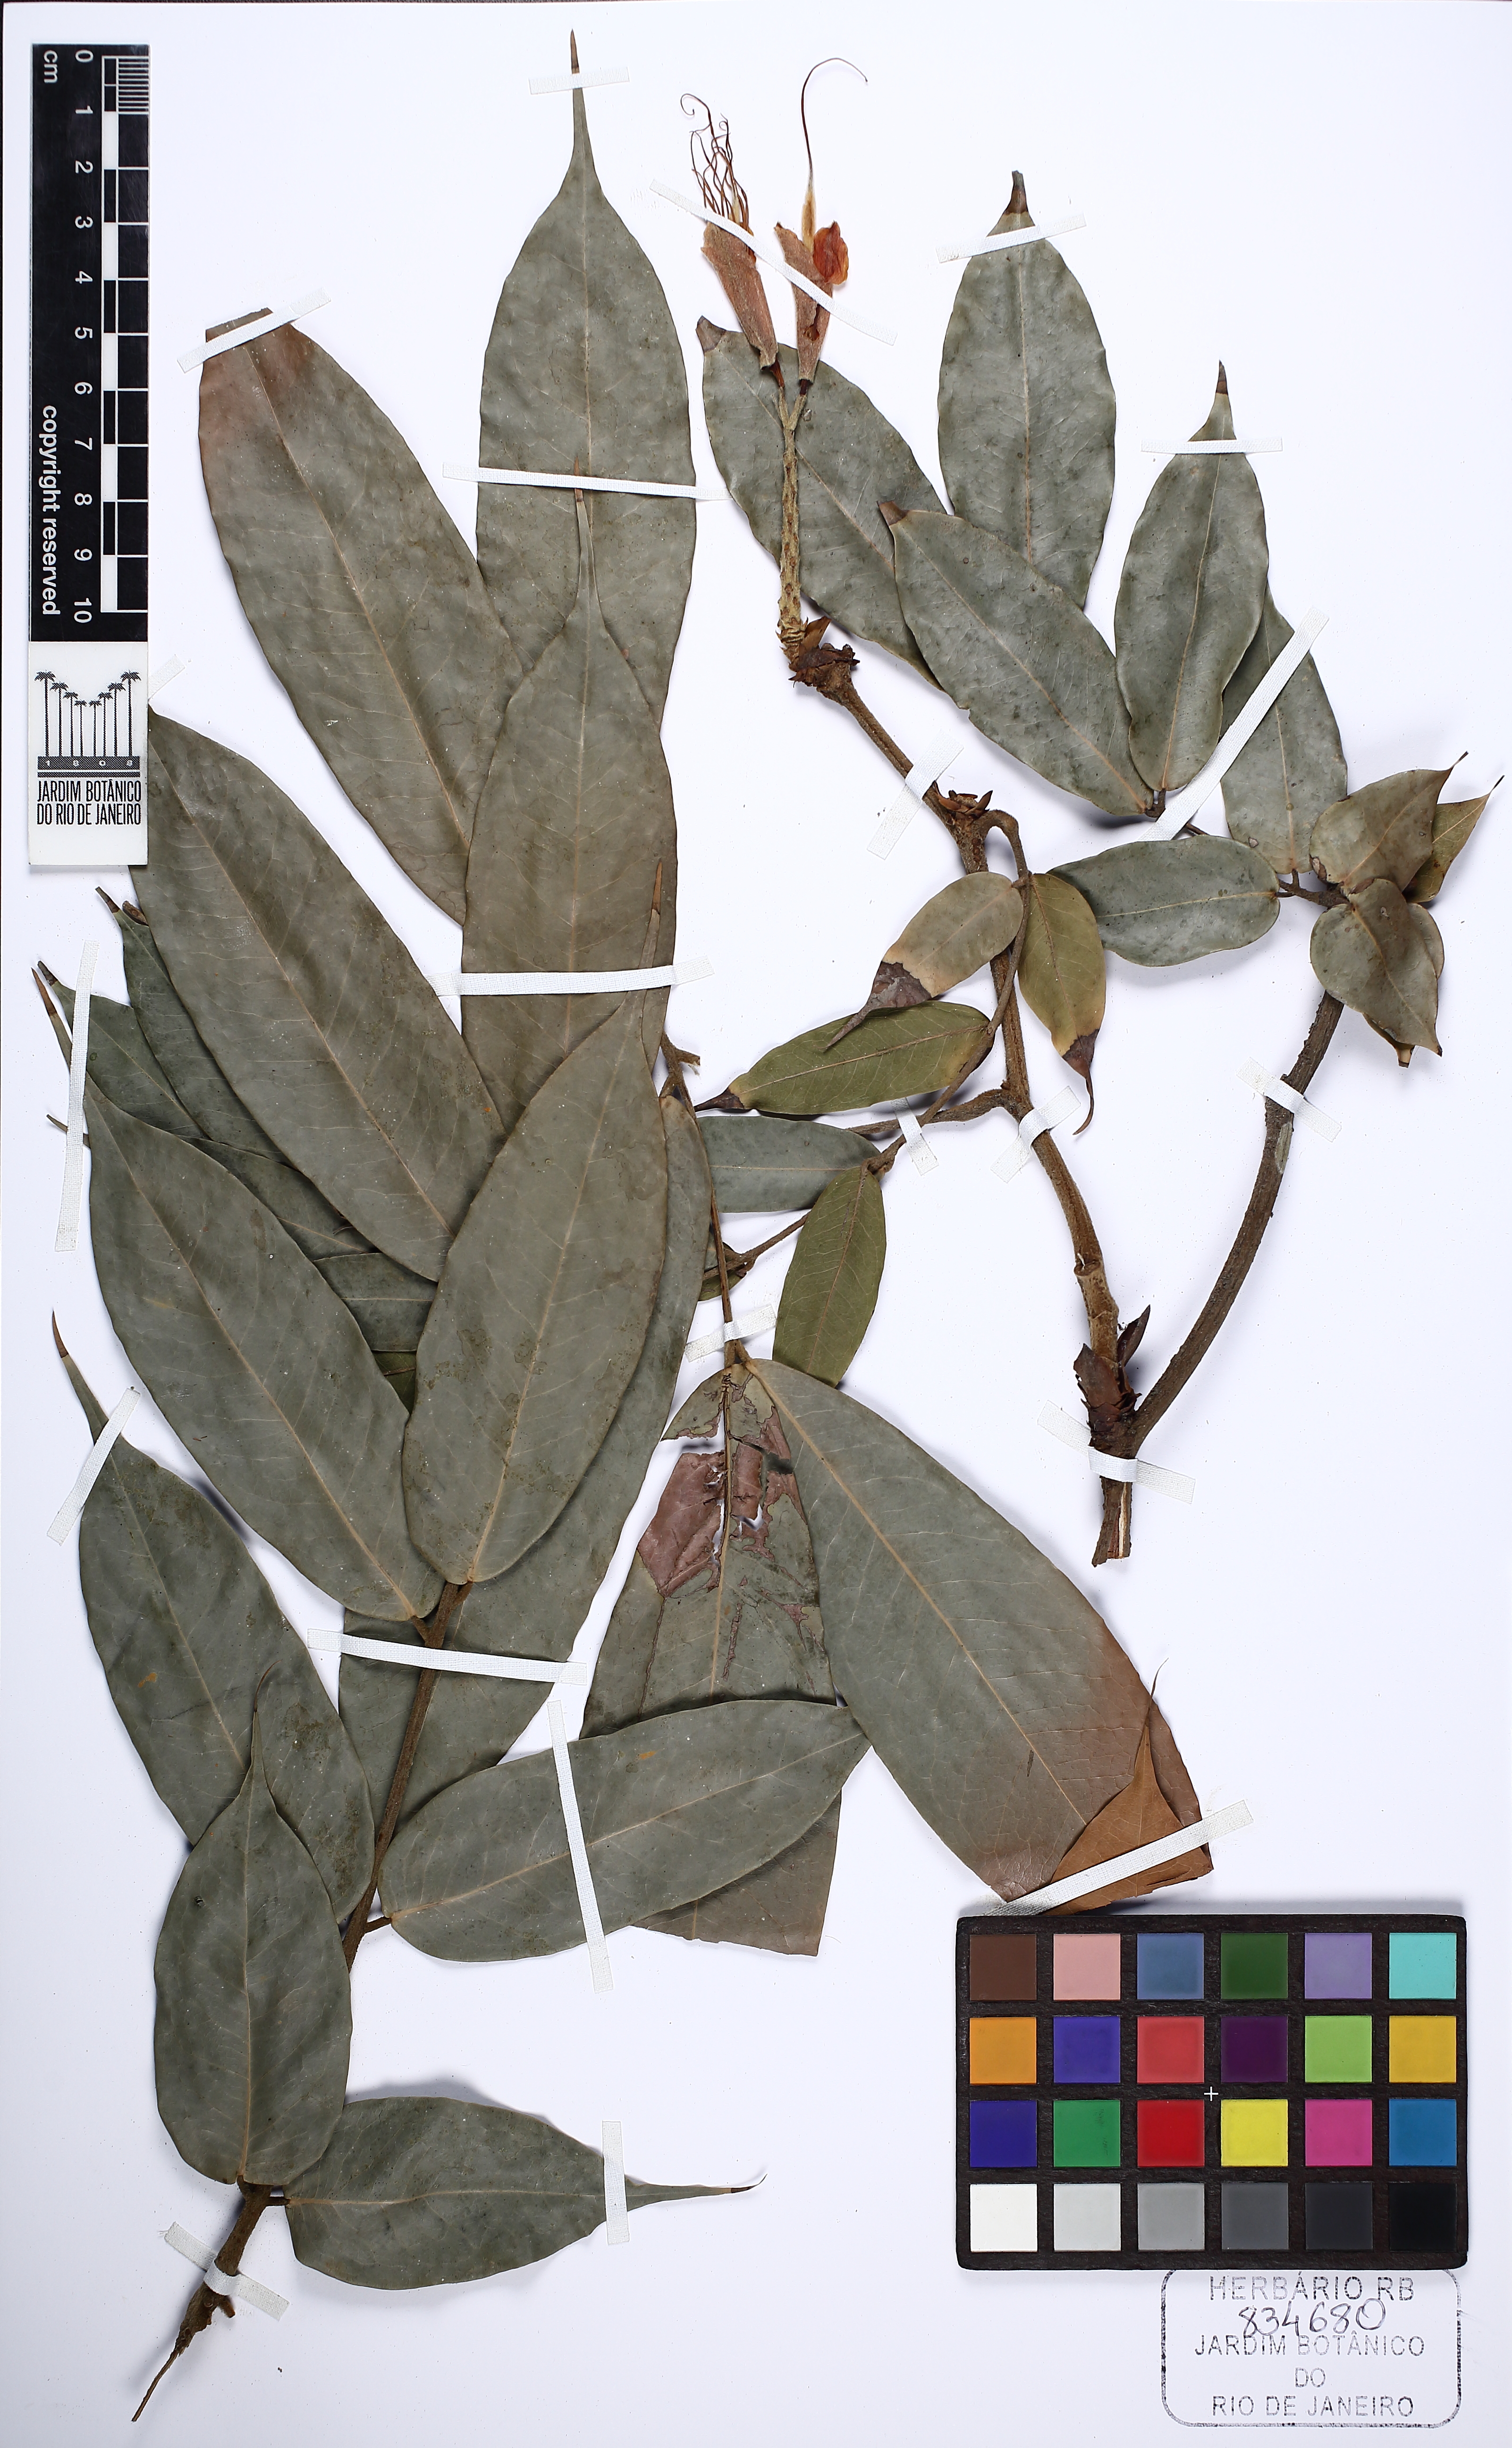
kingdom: Plantae
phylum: Tracheophyta
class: Magnoliopsida
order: Fabales
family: Fabaceae
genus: Brownea
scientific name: Brownea grandiceps
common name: Rose-of-venezuela
